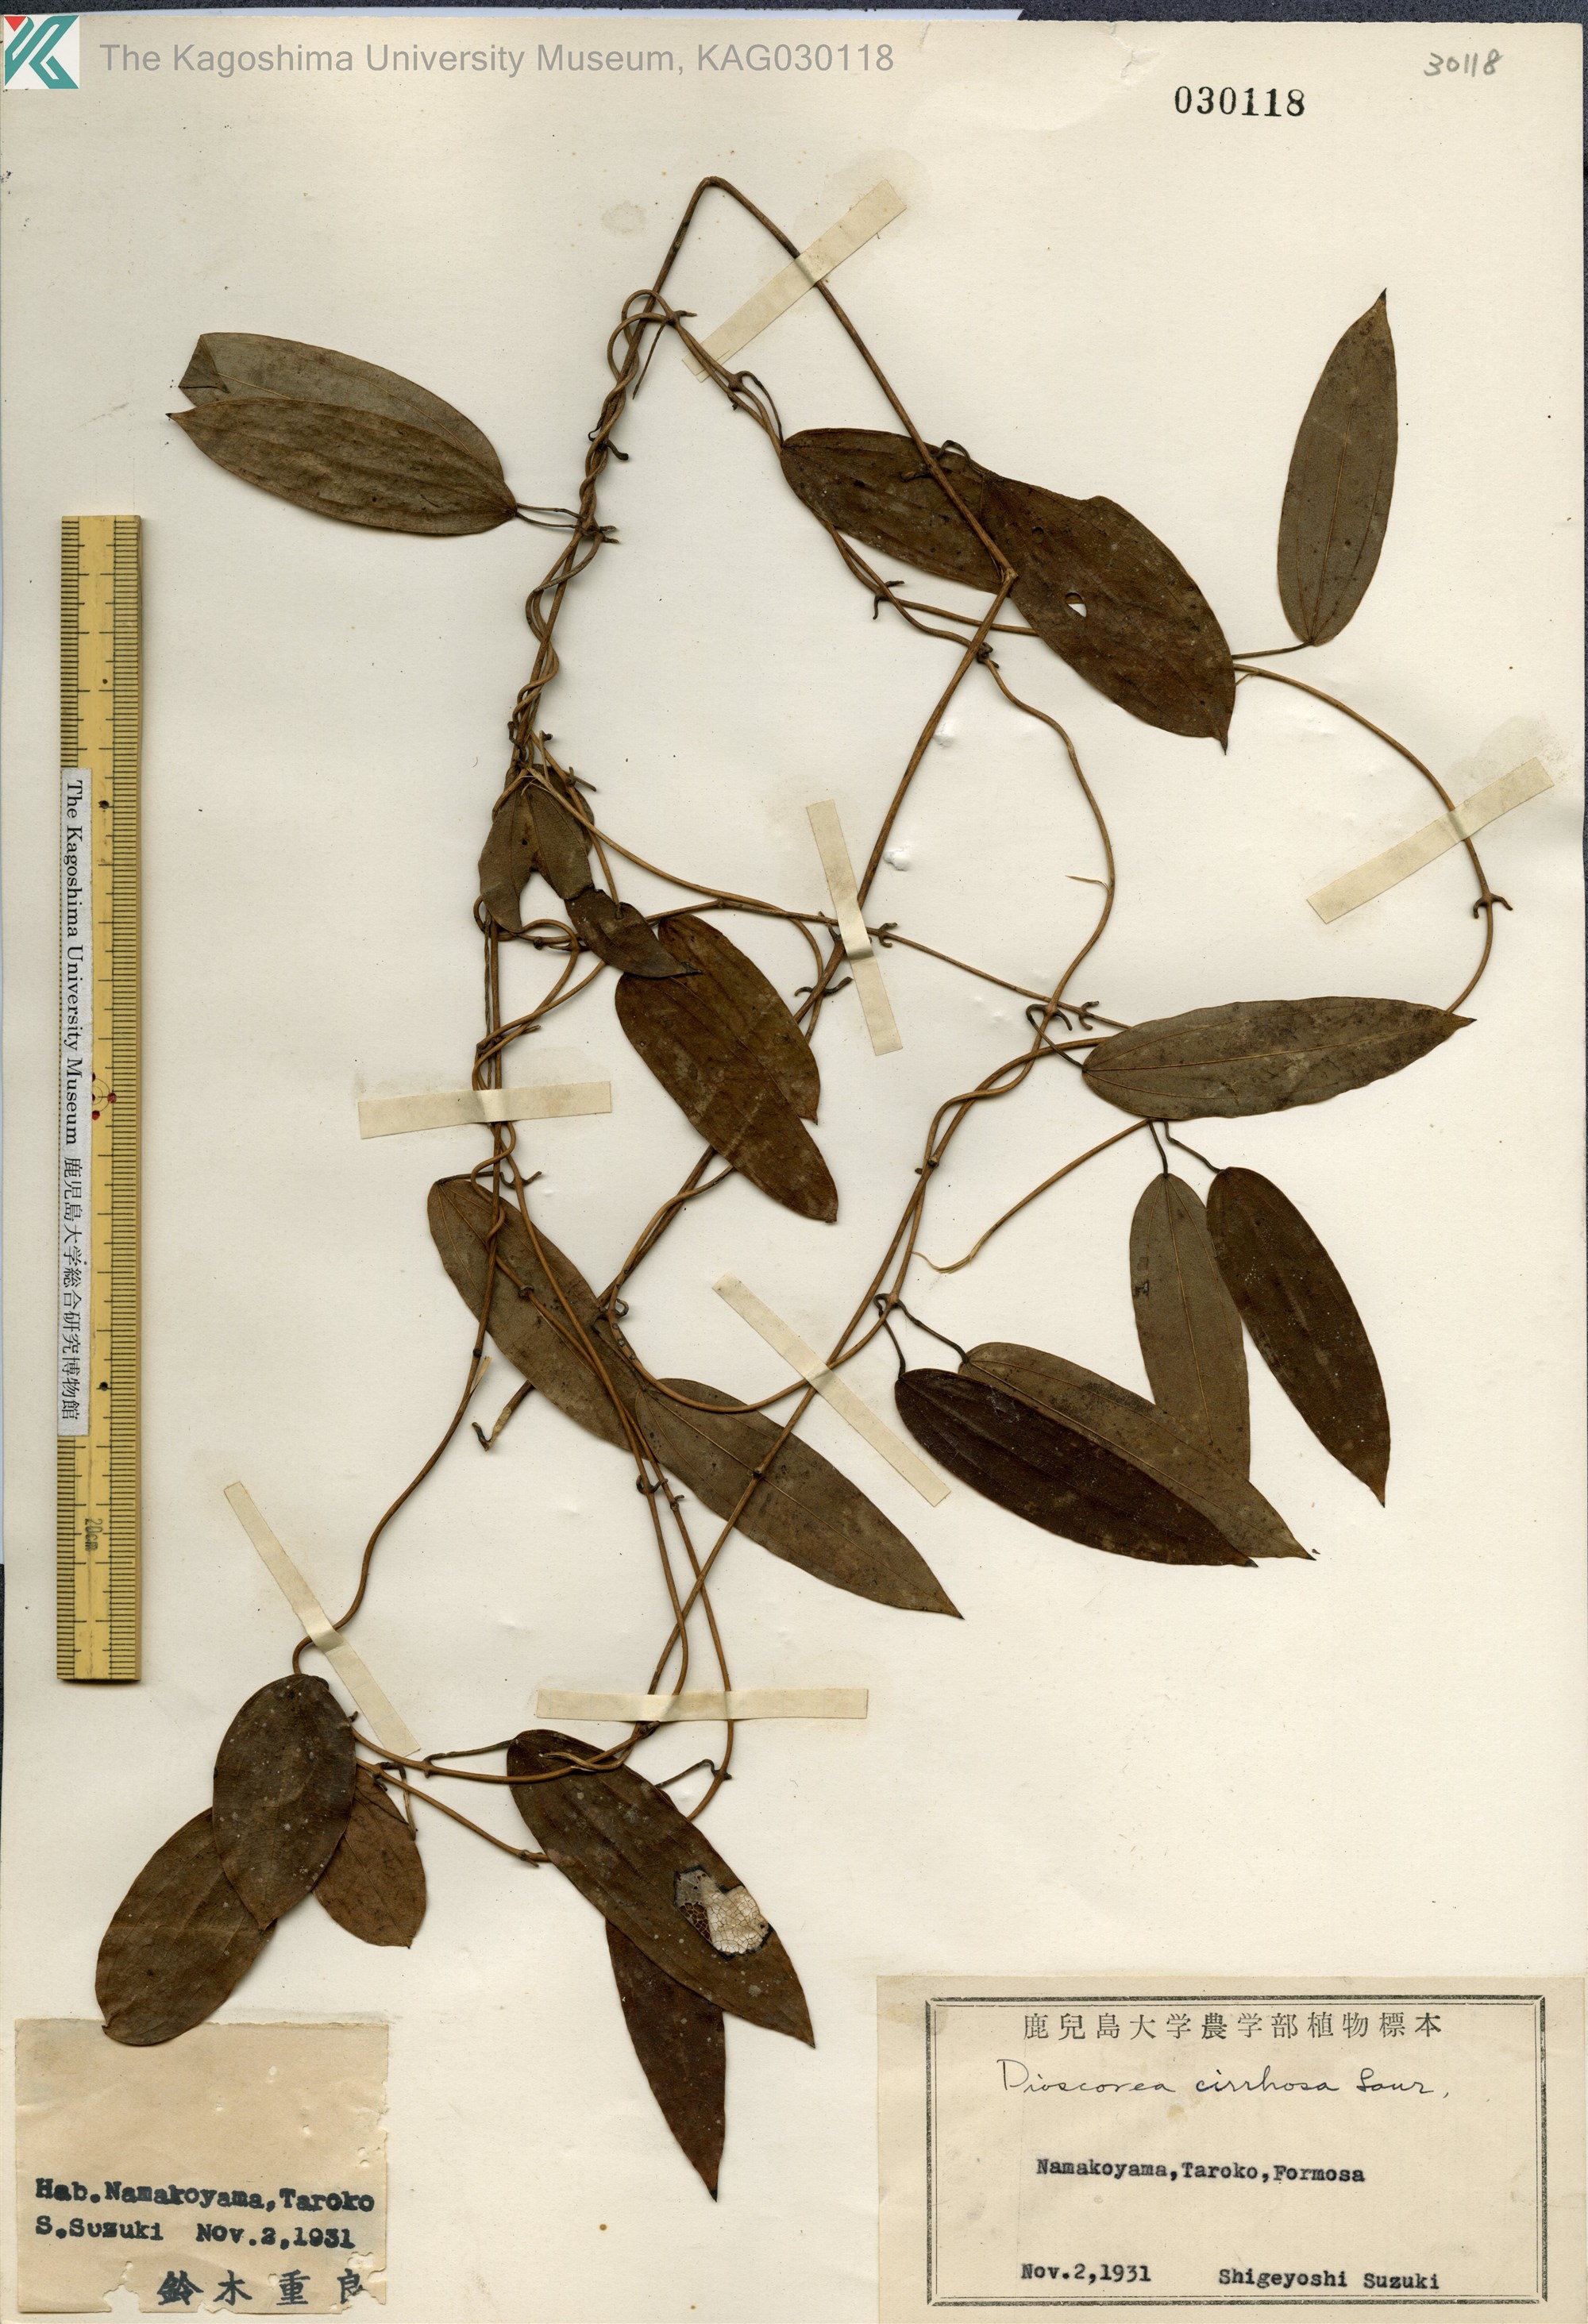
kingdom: Plantae
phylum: Tracheophyta
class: Liliopsida
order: Dioscoreales
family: Dioscoreaceae
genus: Dioscorea
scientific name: Dioscorea cirrhosa
